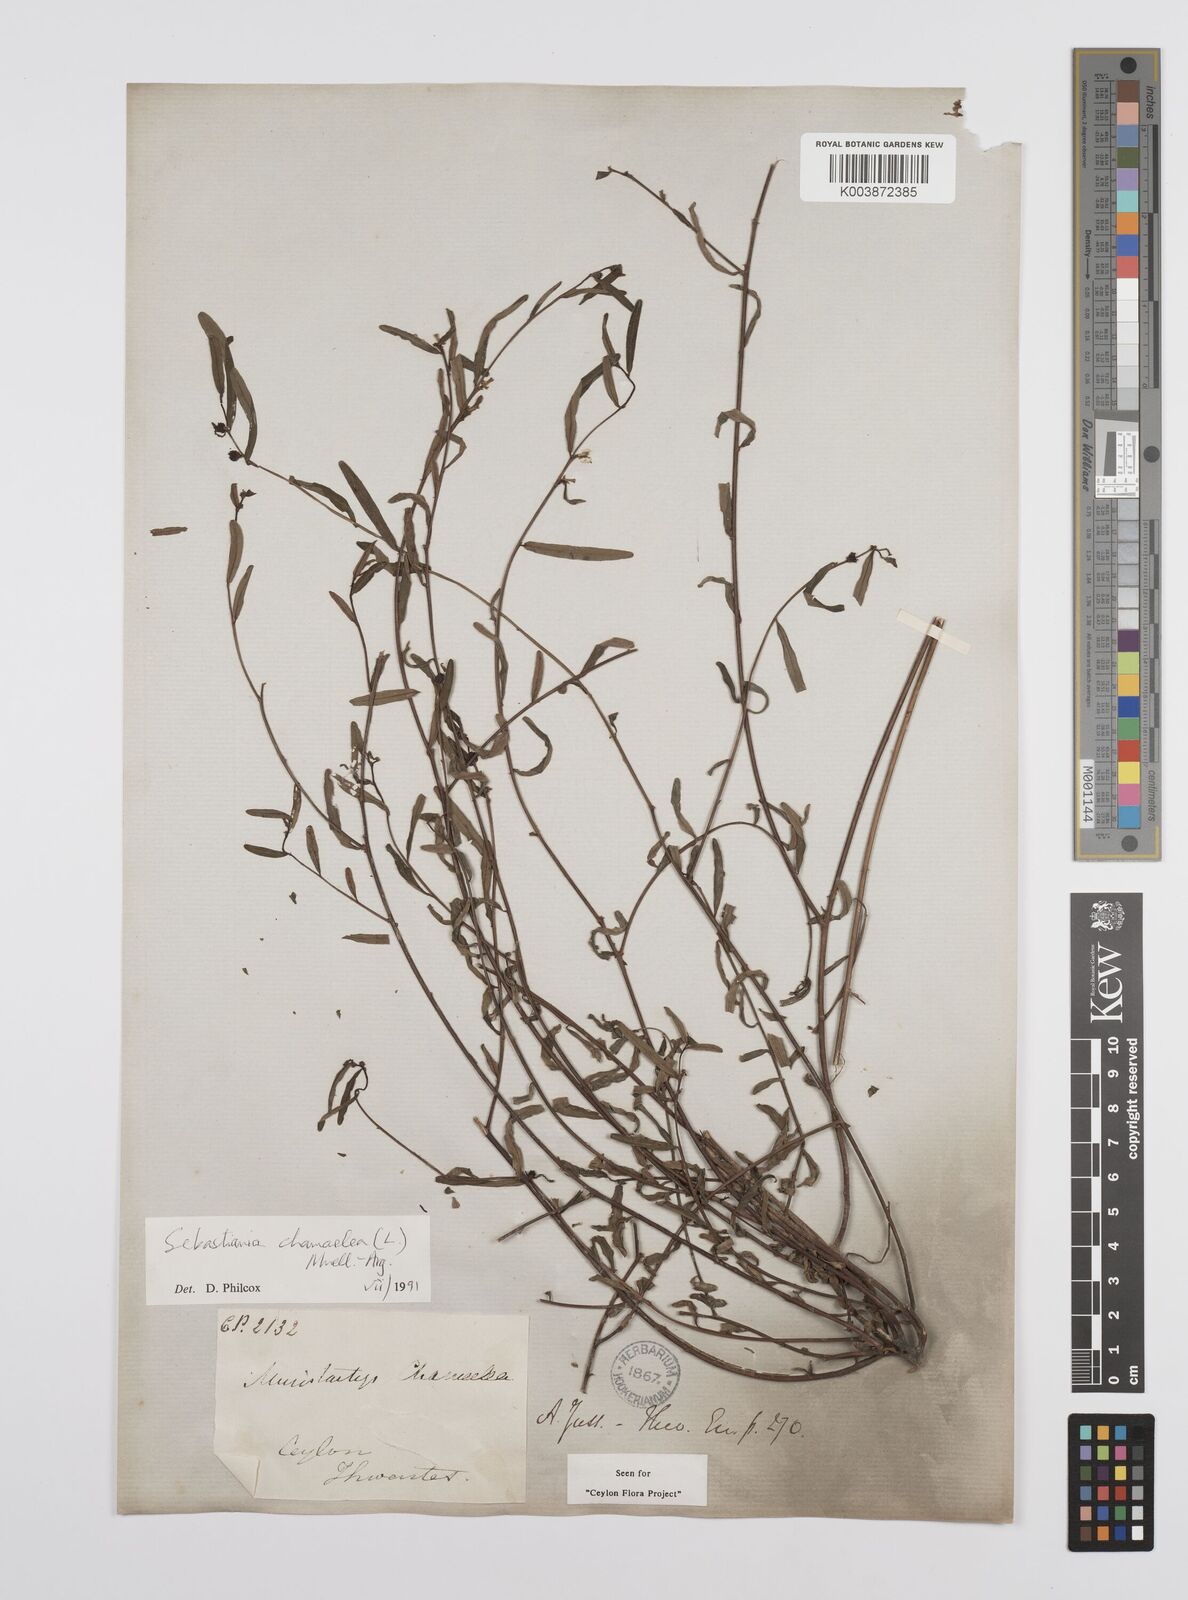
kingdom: Plantae
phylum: Tracheophyta
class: Magnoliopsida
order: Malpighiales
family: Euphorbiaceae
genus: Microstachys
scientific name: Microstachys chamaelea
